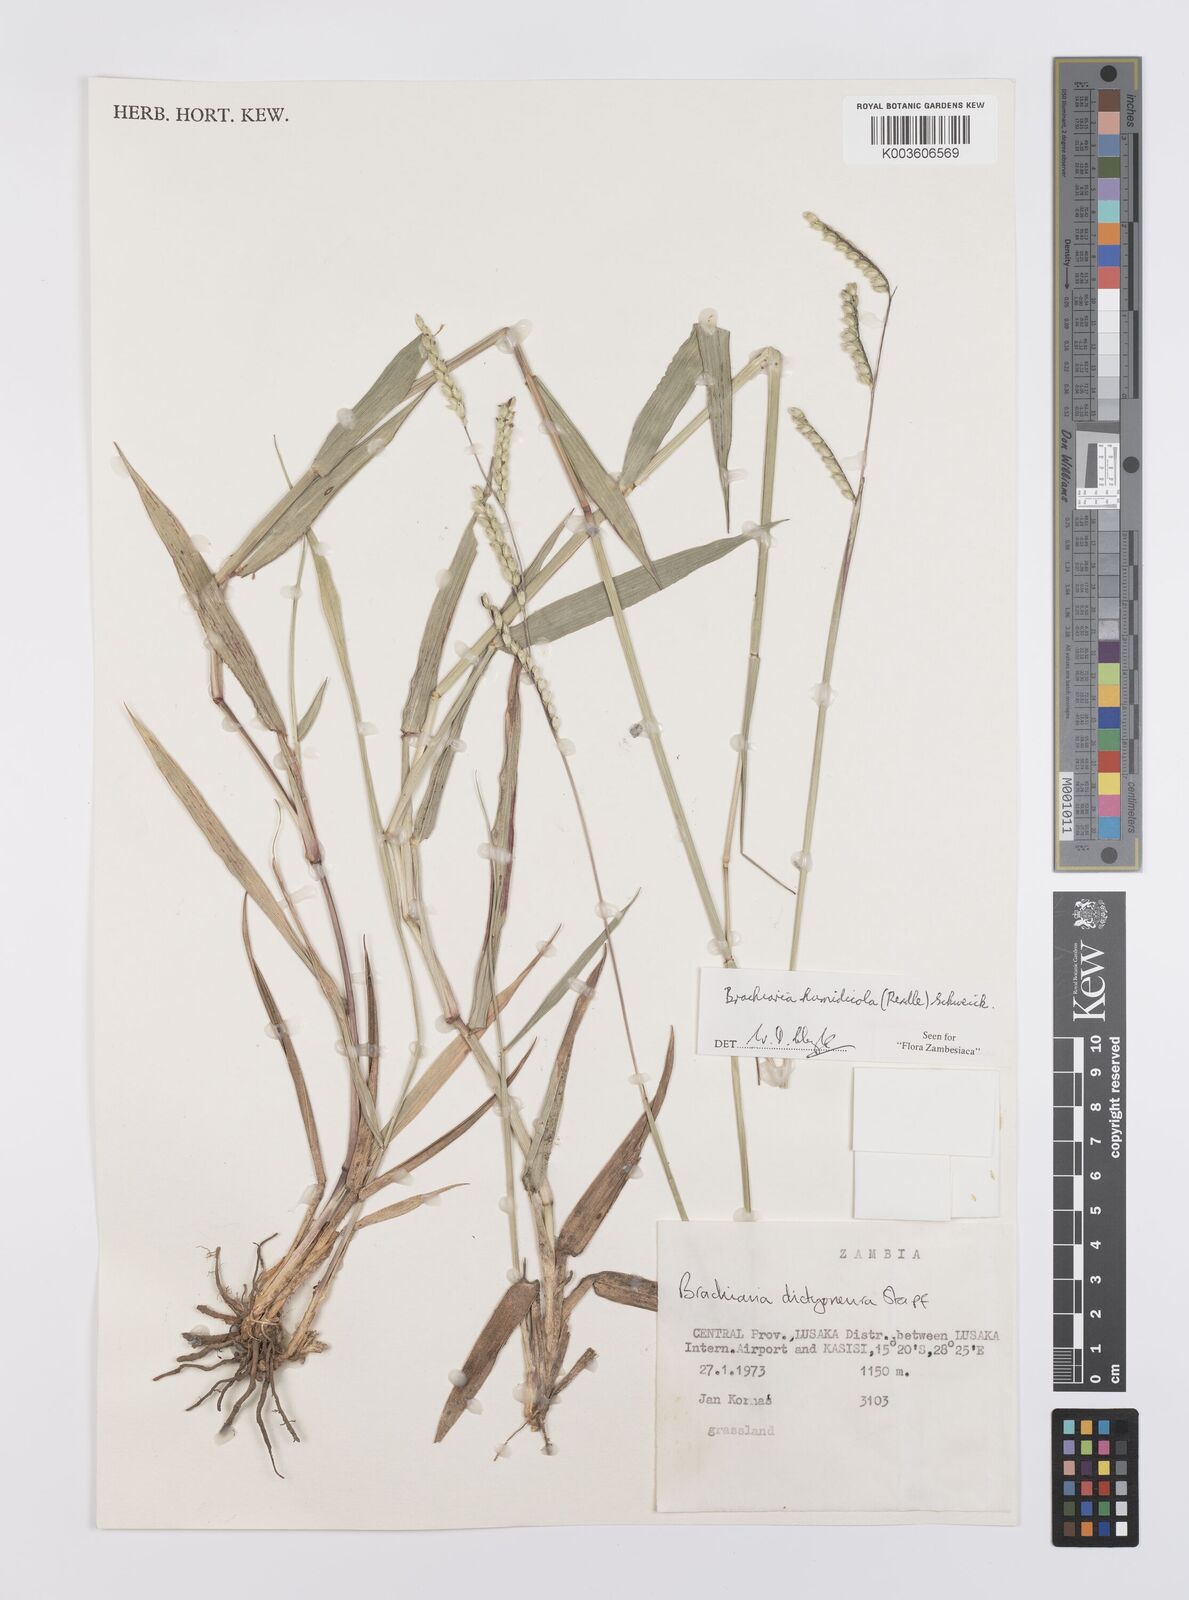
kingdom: Plantae
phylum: Tracheophyta
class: Liliopsida
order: Poales
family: Poaceae
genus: Urochloa
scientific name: Urochloa dictyoneura
